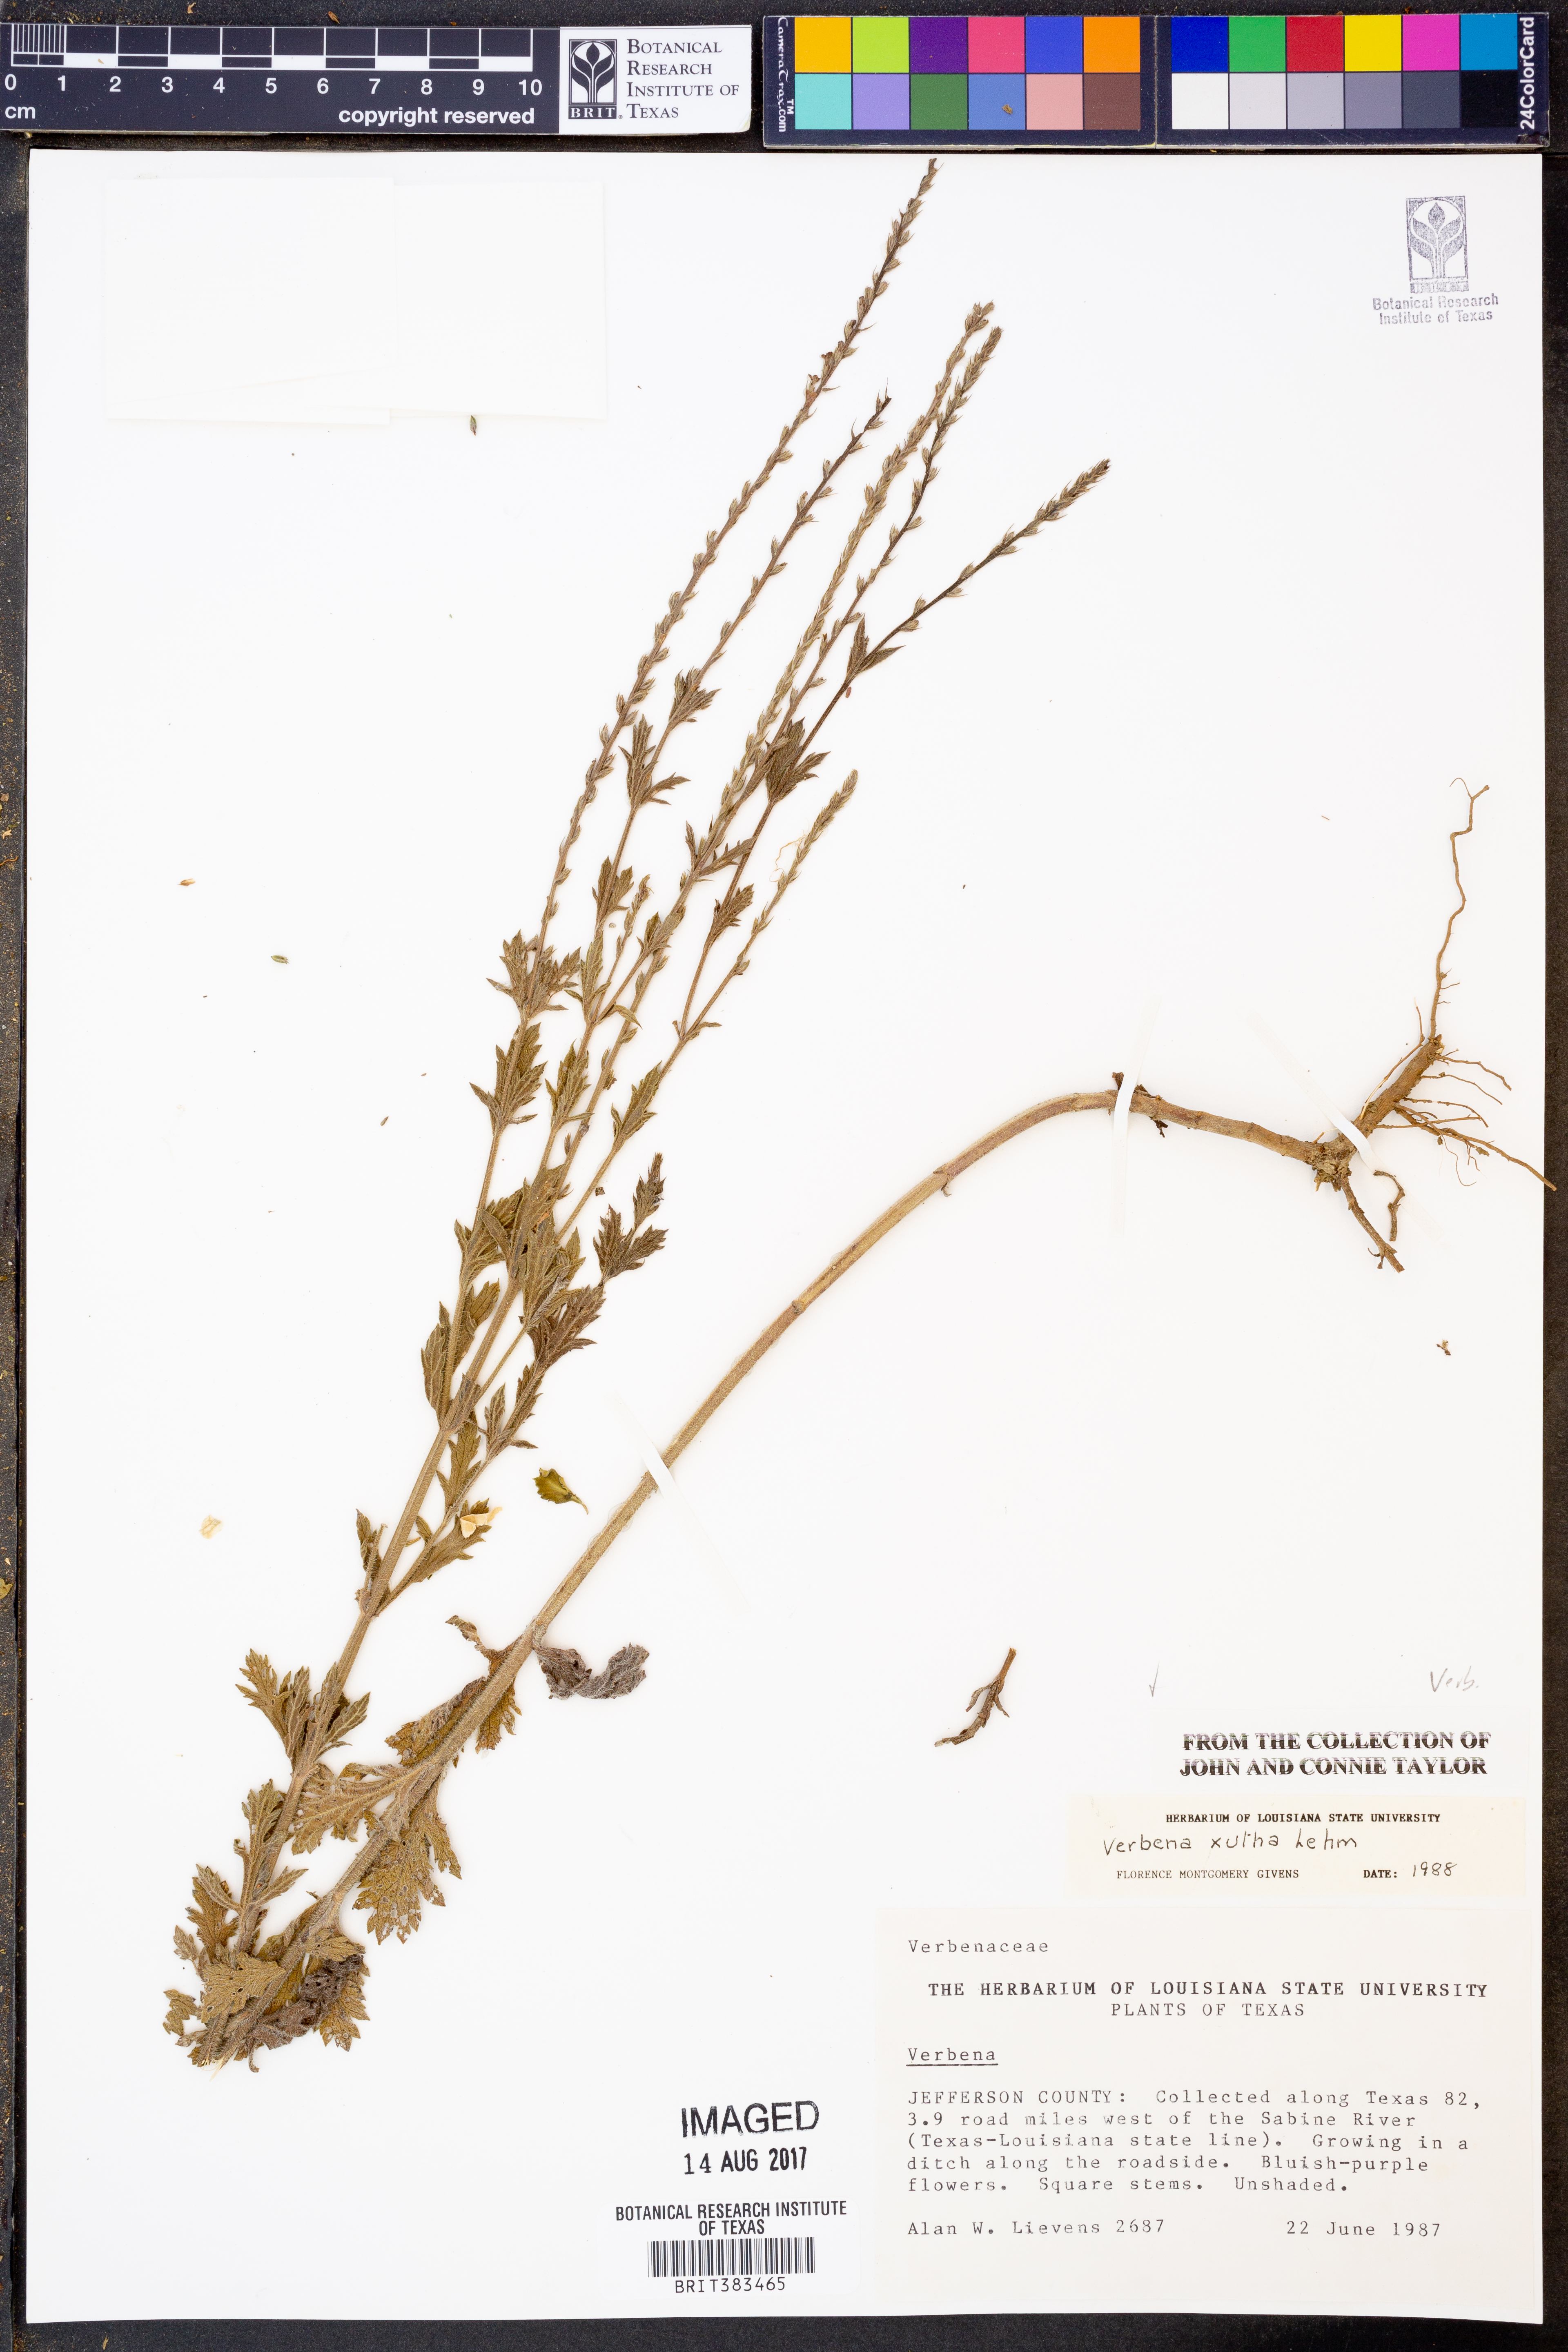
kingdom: Plantae
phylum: Tracheophyta
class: Magnoliopsida
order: Lamiales
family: Verbenaceae
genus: Verbena
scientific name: Verbena xutha
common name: Gulf vervain
